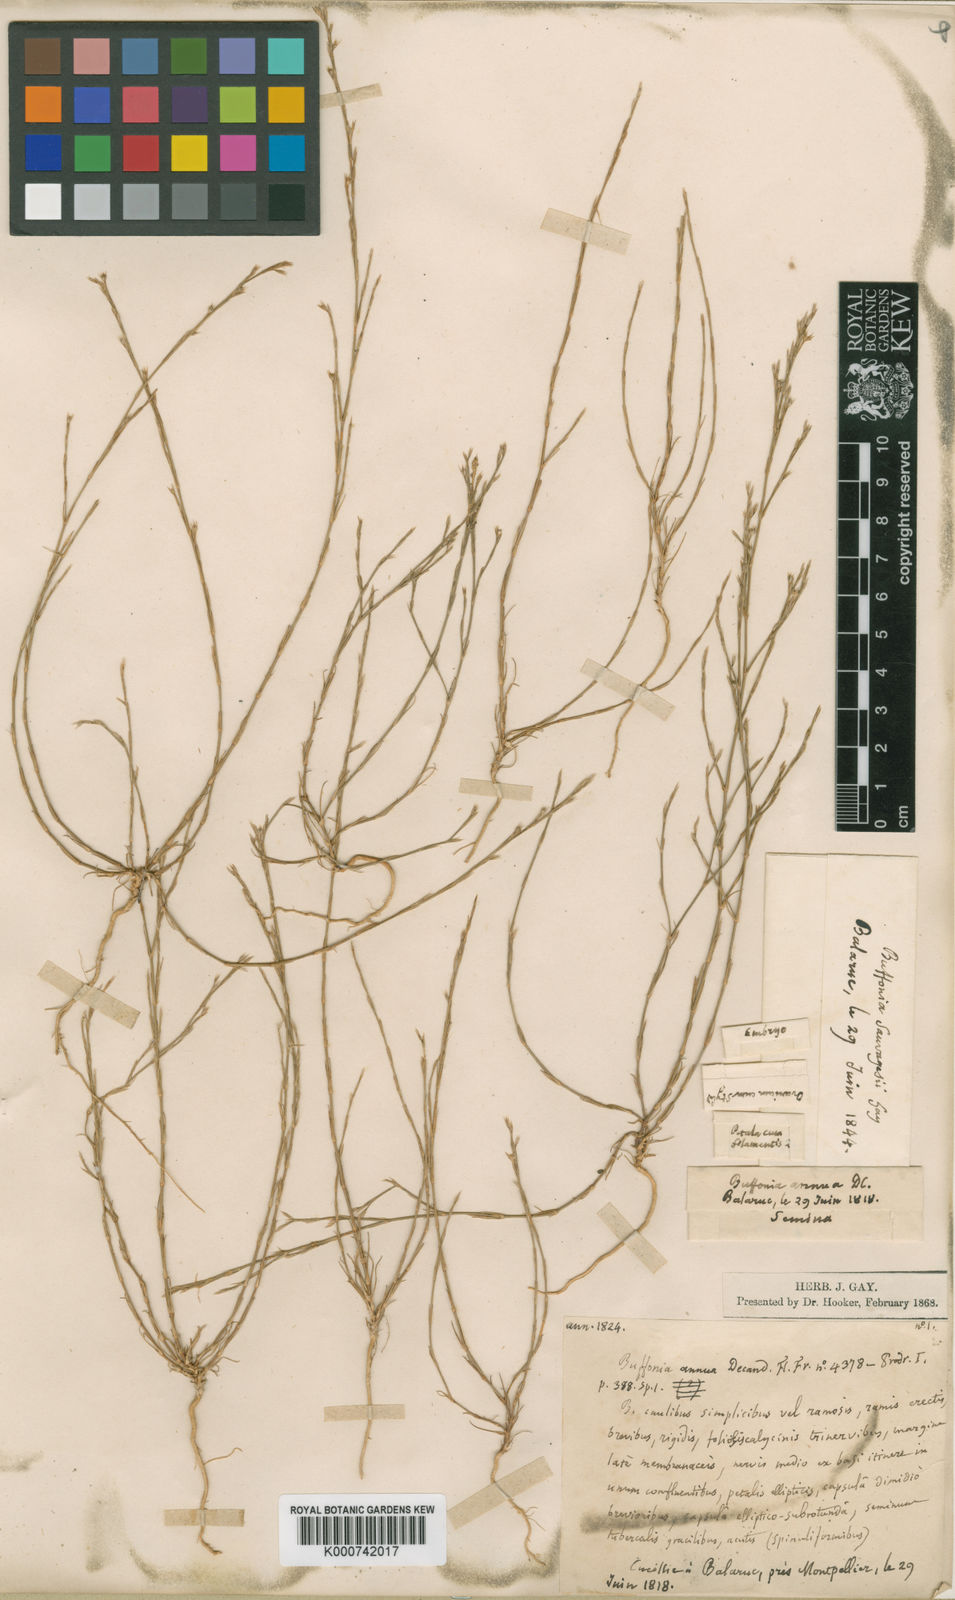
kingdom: Plantae
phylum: Tracheophyta
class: Magnoliopsida
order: Caryophyllales
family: Caryophyllaceae
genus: Bufonia
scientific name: Bufonia tenuifolia
